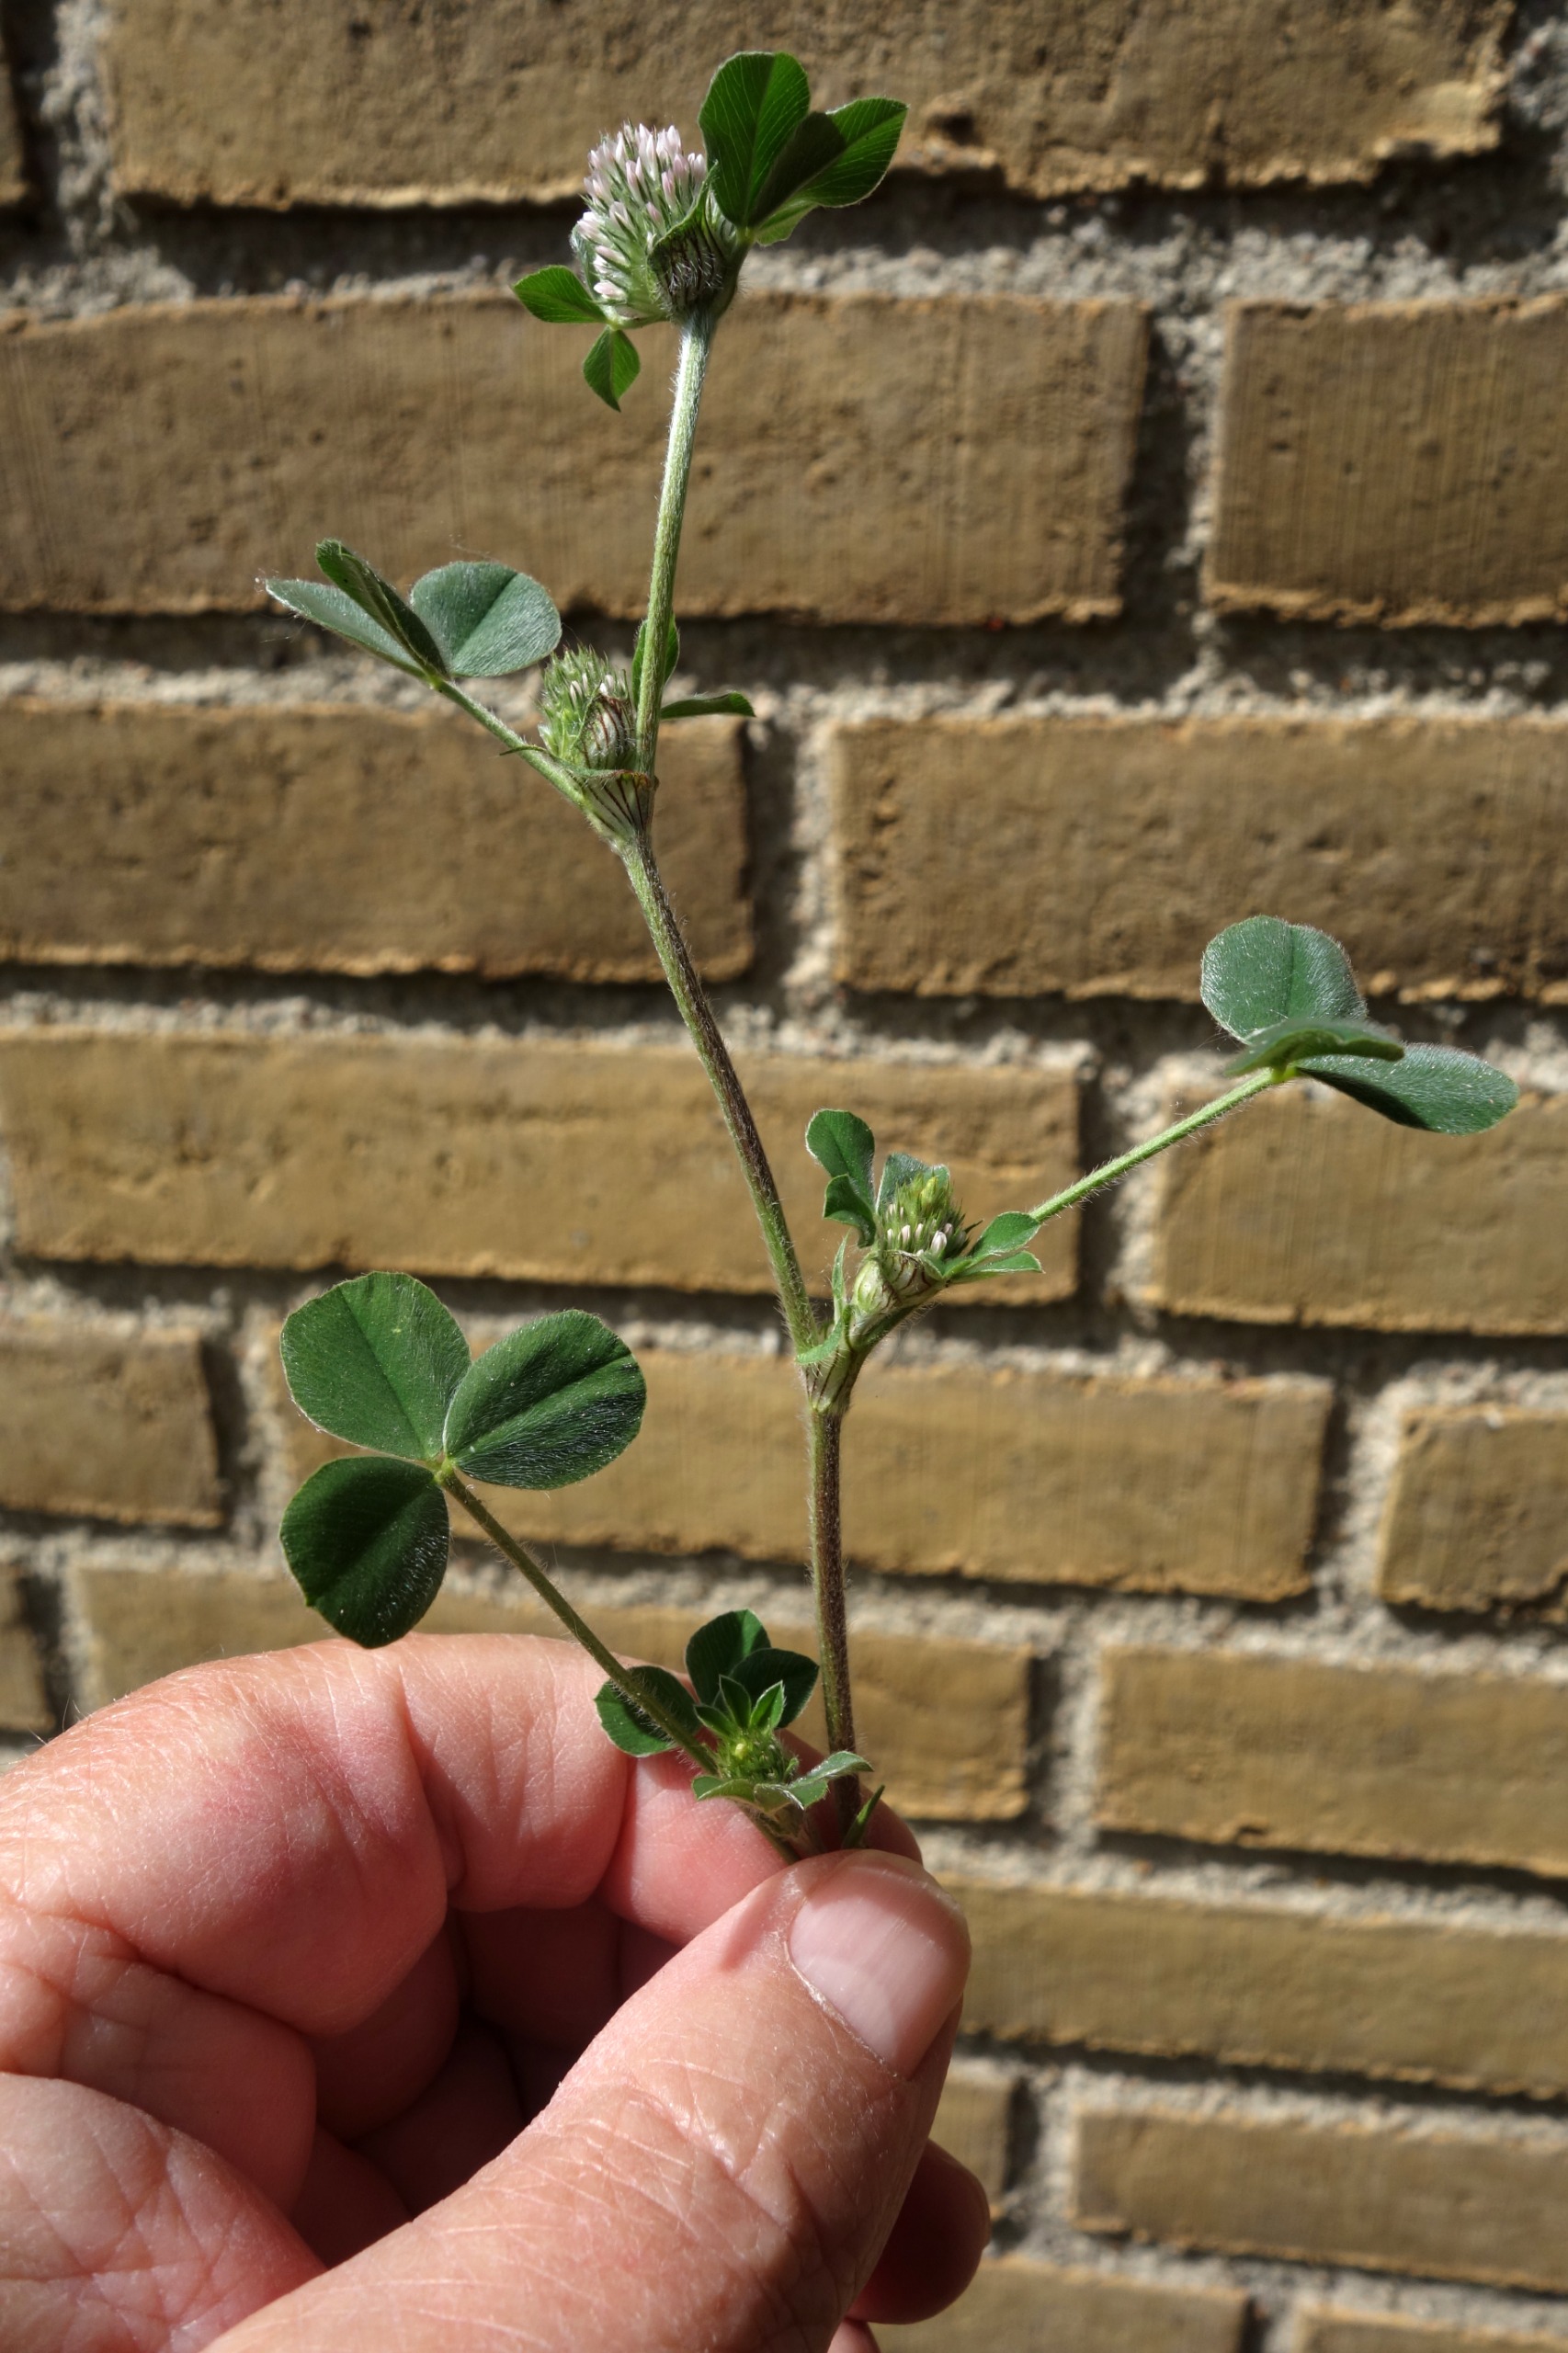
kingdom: Plantae
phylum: Tracheophyta
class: Magnoliopsida
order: Fabales
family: Fabaceae
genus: Trifolium
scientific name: Trifolium striatum
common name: Stribet kløver
